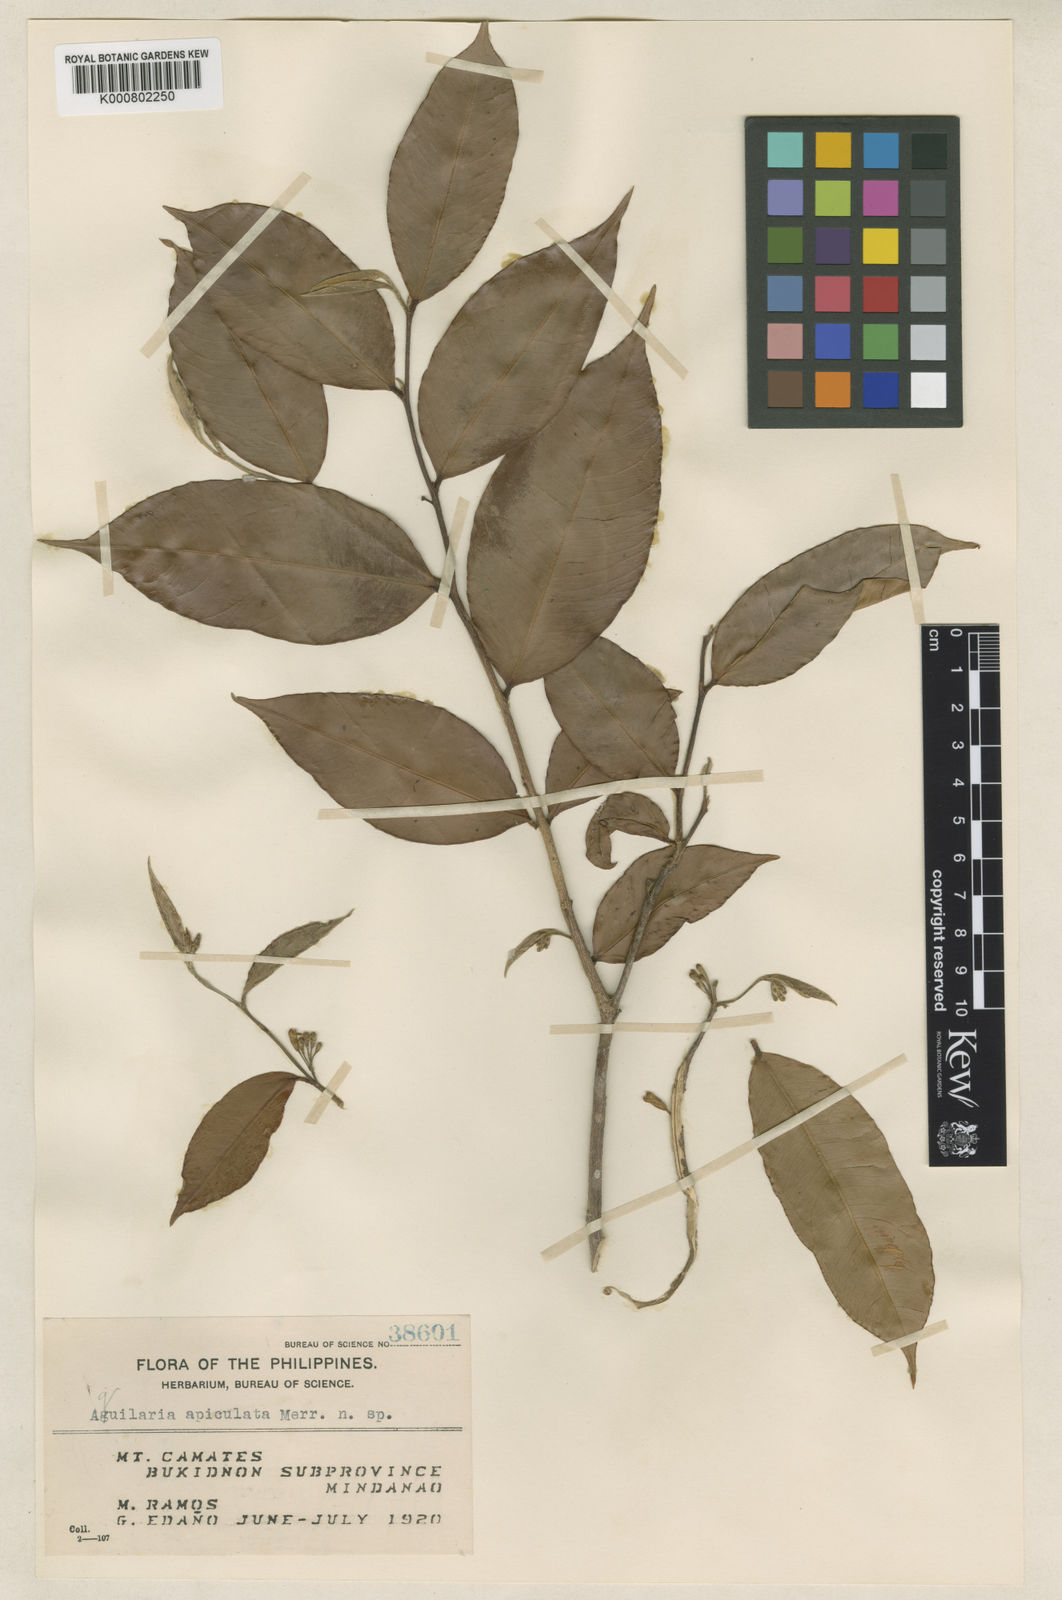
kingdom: Plantae
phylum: Tracheophyta
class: Magnoliopsida
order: Malvales
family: Thymelaeaceae
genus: Aquilaria
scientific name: Aquilaria apiculata
